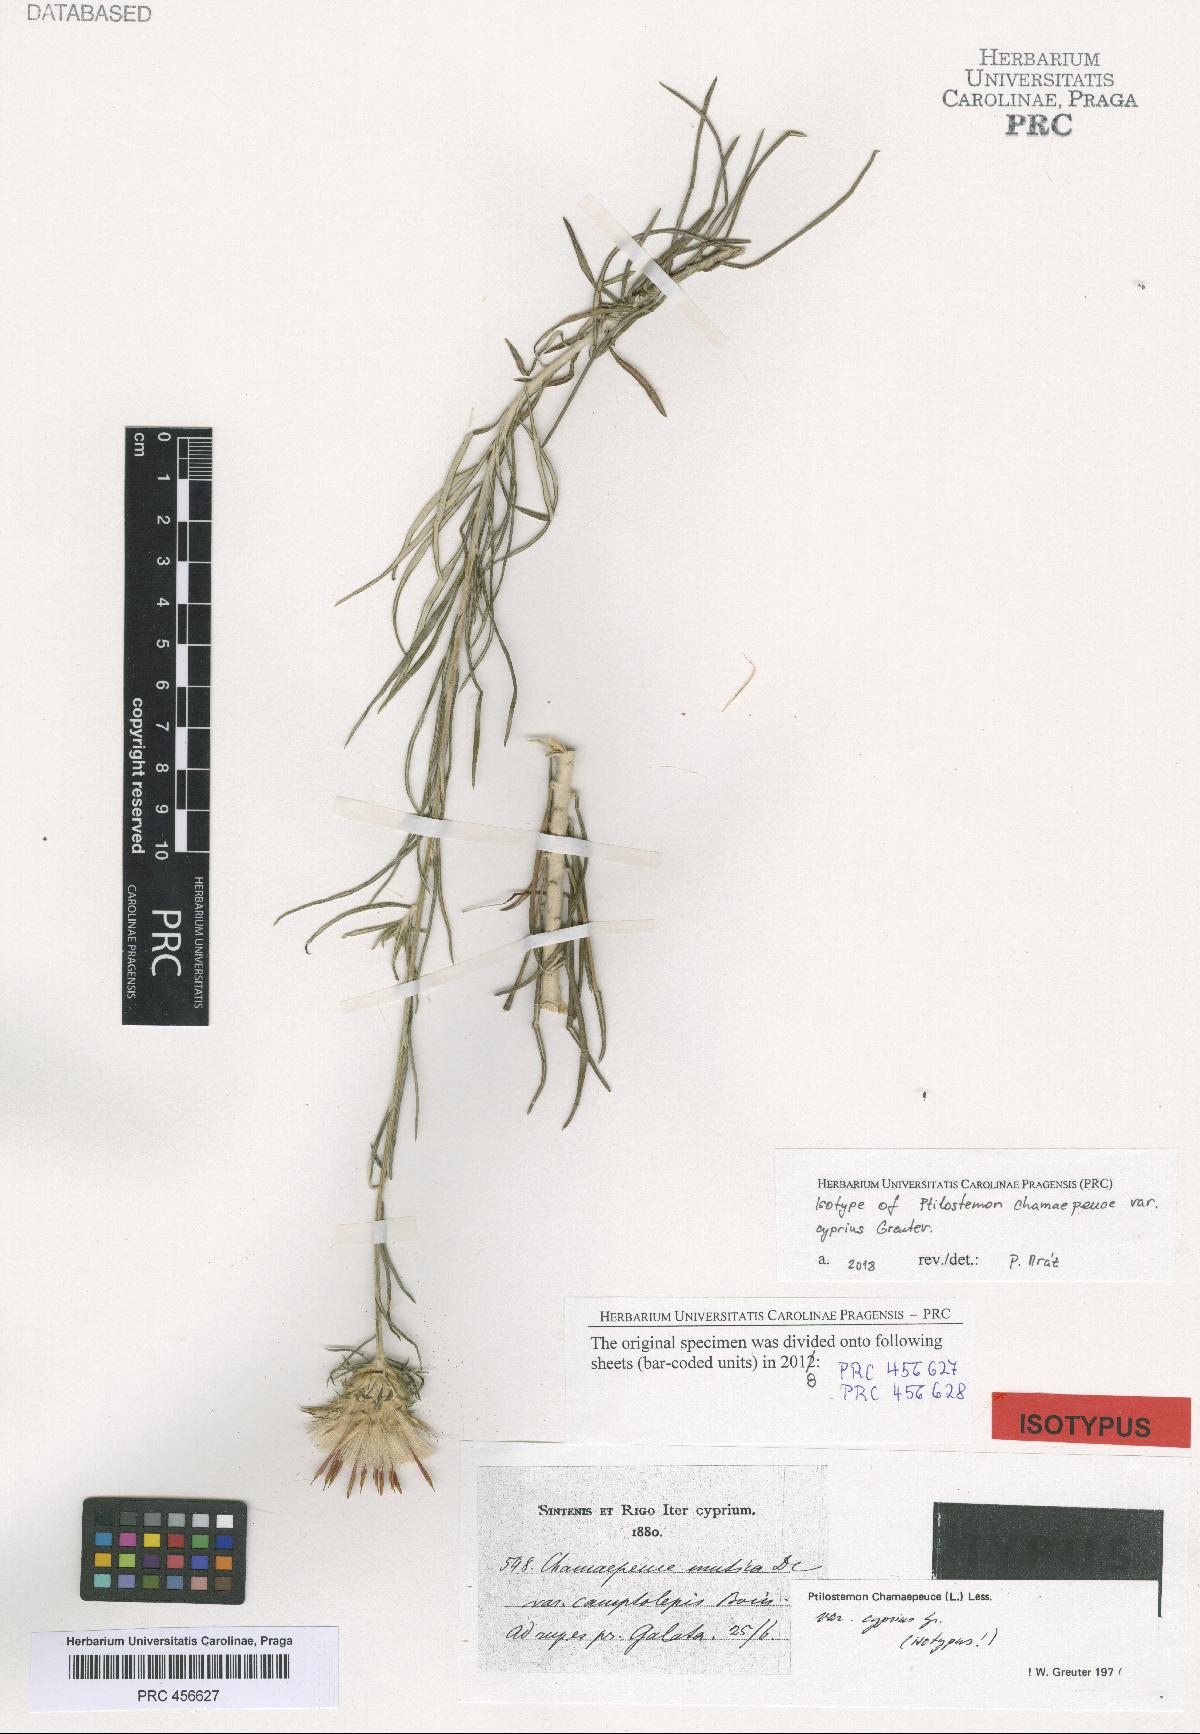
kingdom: Plantae
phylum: Tracheophyta
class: Magnoliopsida
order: Asterales
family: Asteraceae
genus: Ptilostemon
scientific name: Ptilostemon chamaepeuce
